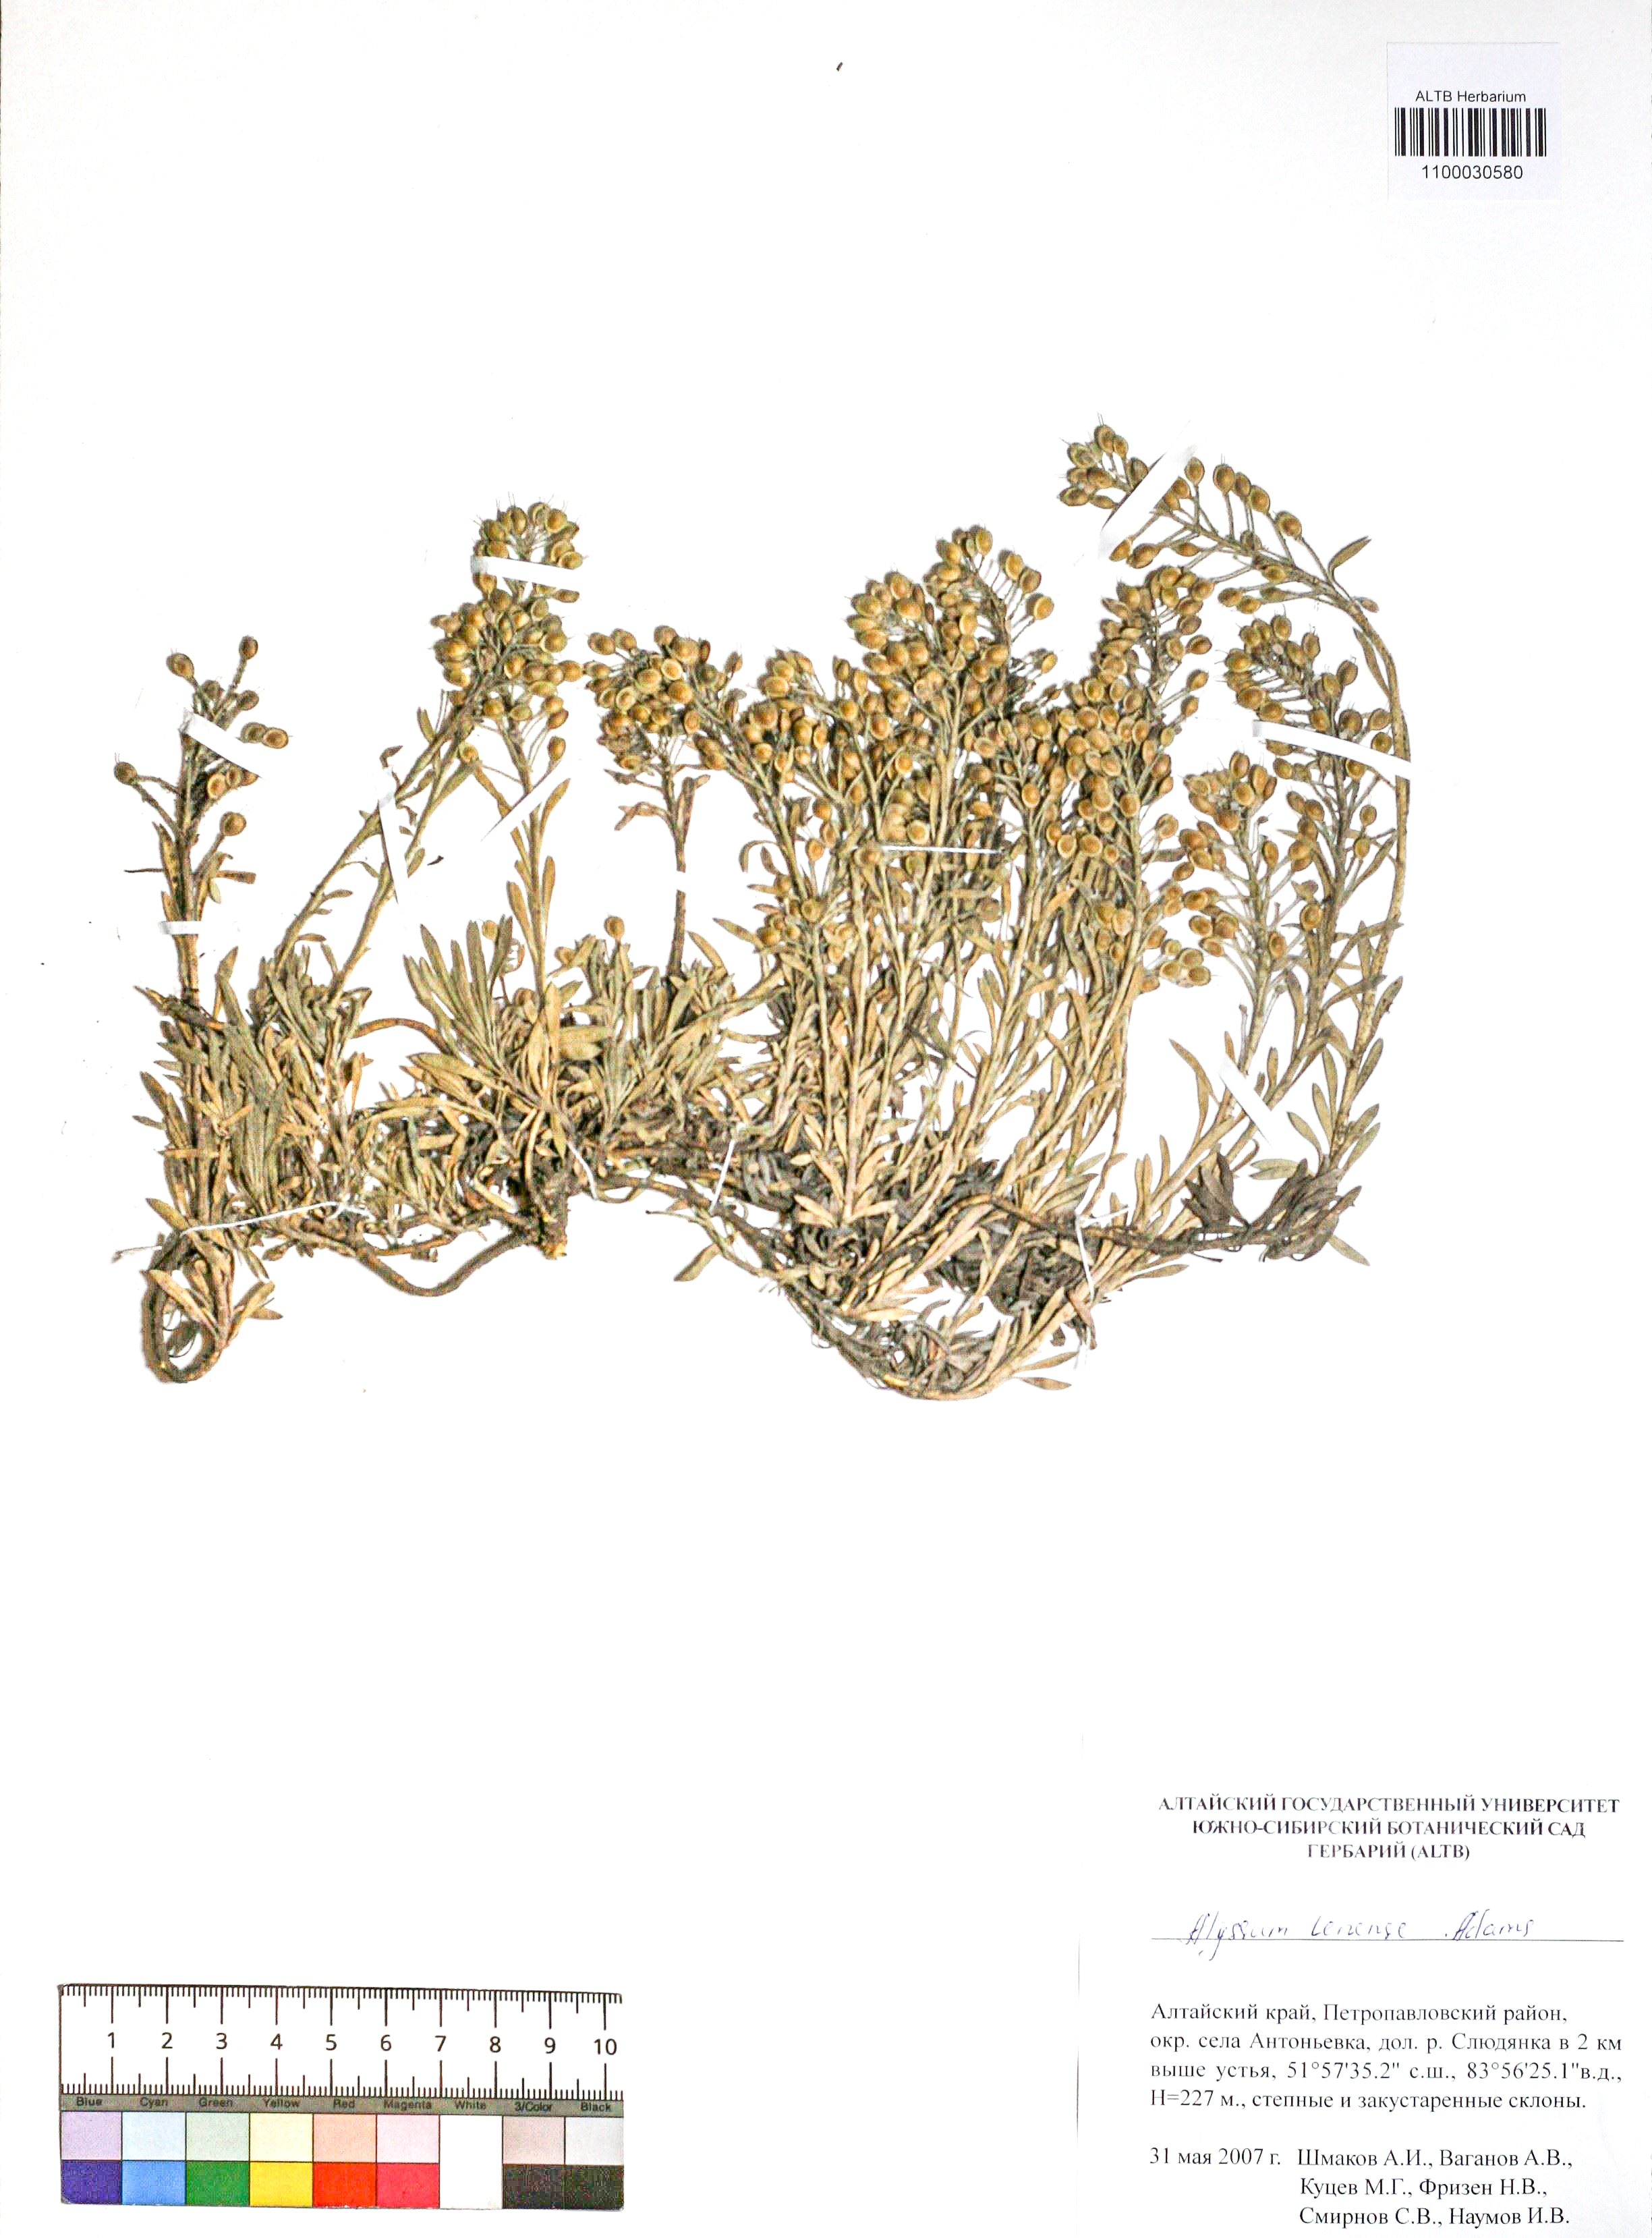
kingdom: Plantae
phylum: Tracheophyta
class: Magnoliopsida
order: Brassicales
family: Brassicaceae
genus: Alyssum
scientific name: Alyssum lenense
